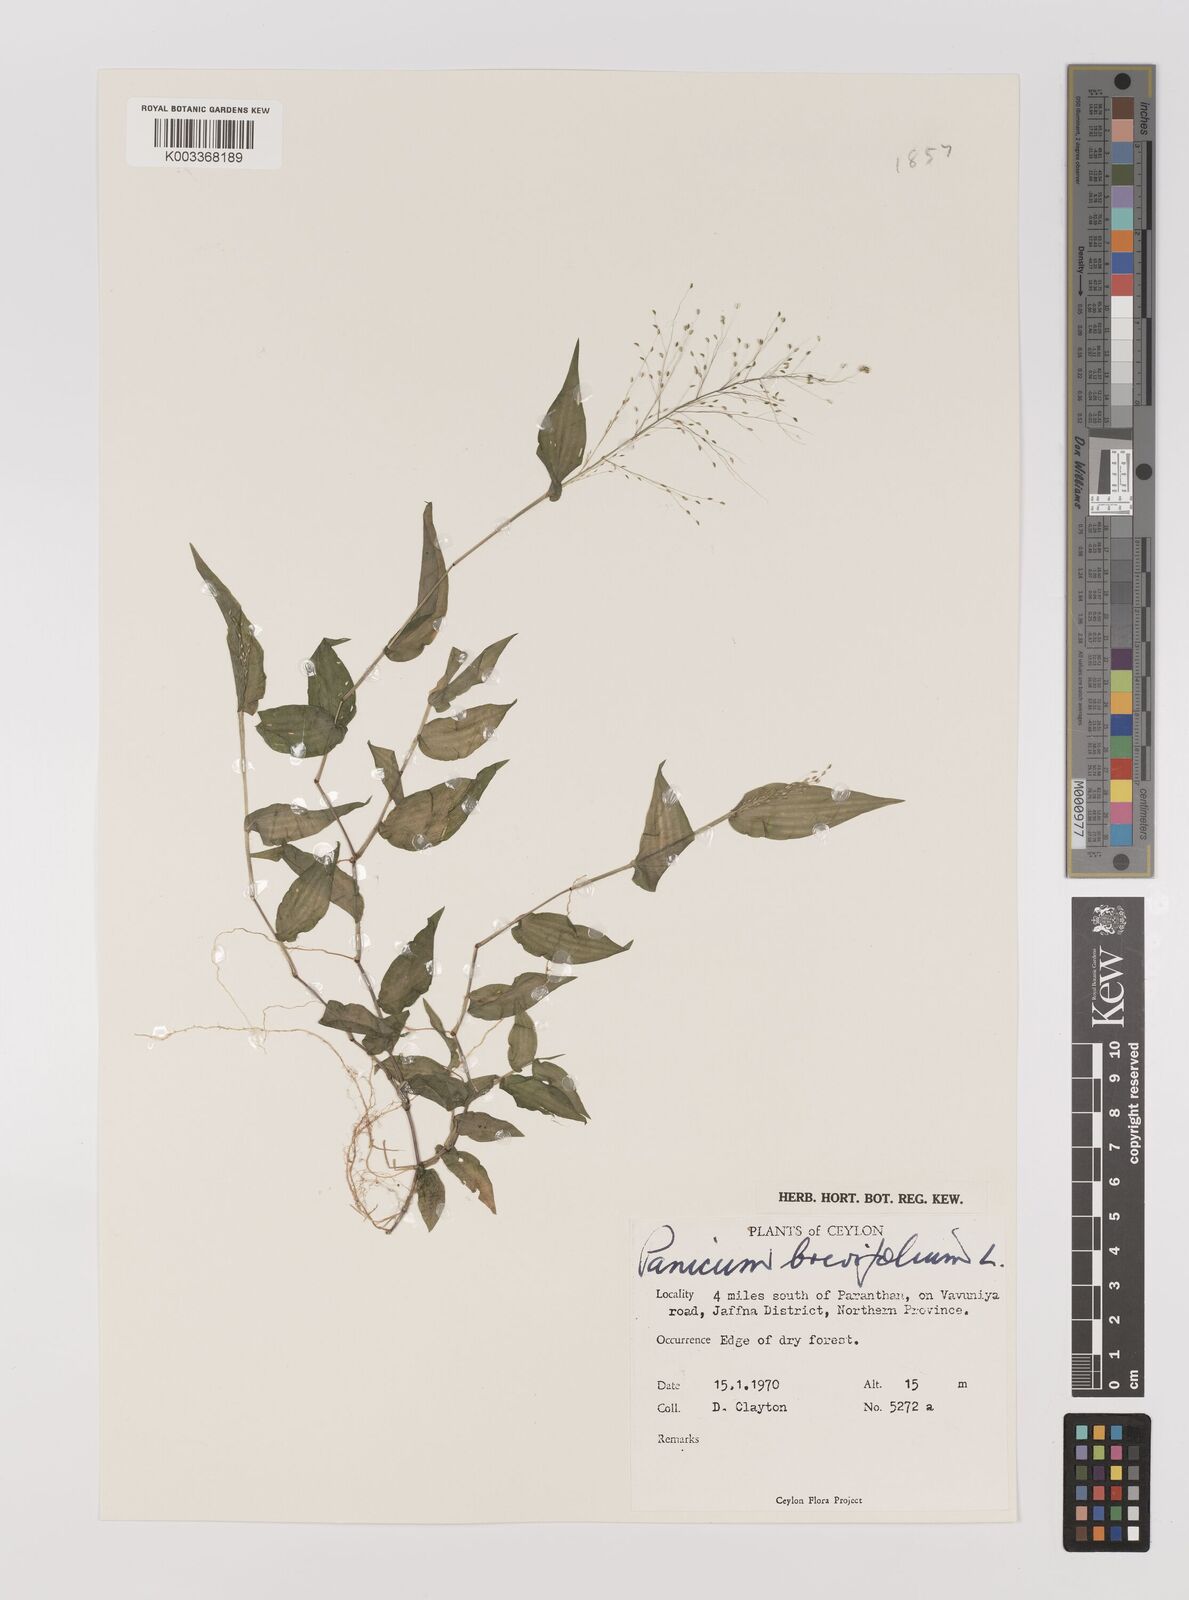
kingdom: Plantae
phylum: Tracheophyta
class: Liliopsida
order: Poales
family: Poaceae
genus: Panicum
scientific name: Panicum brevifolium
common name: Shortleaf panic grass
